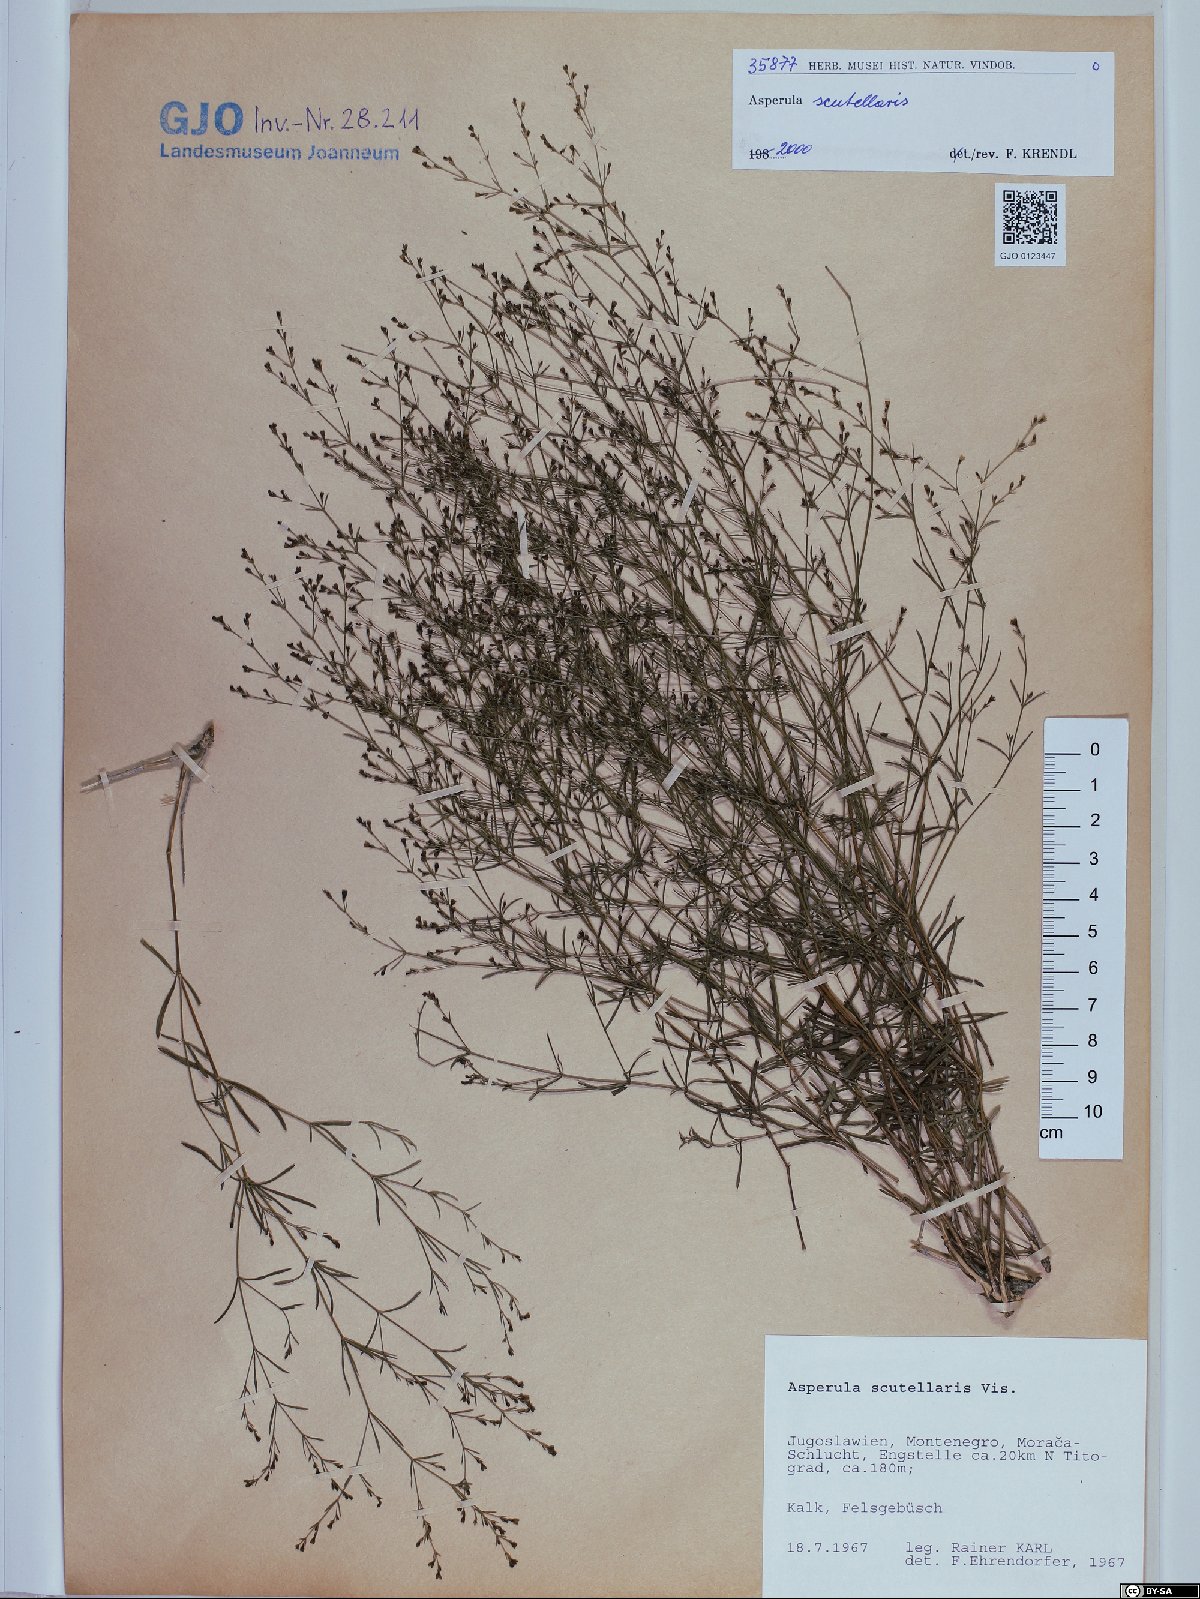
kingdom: Plantae
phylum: Tracheophyta
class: Magnoliopsida
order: Gentianales
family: Rubiaceae
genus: Thliphthisa
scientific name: Thliphthisa rupestris
